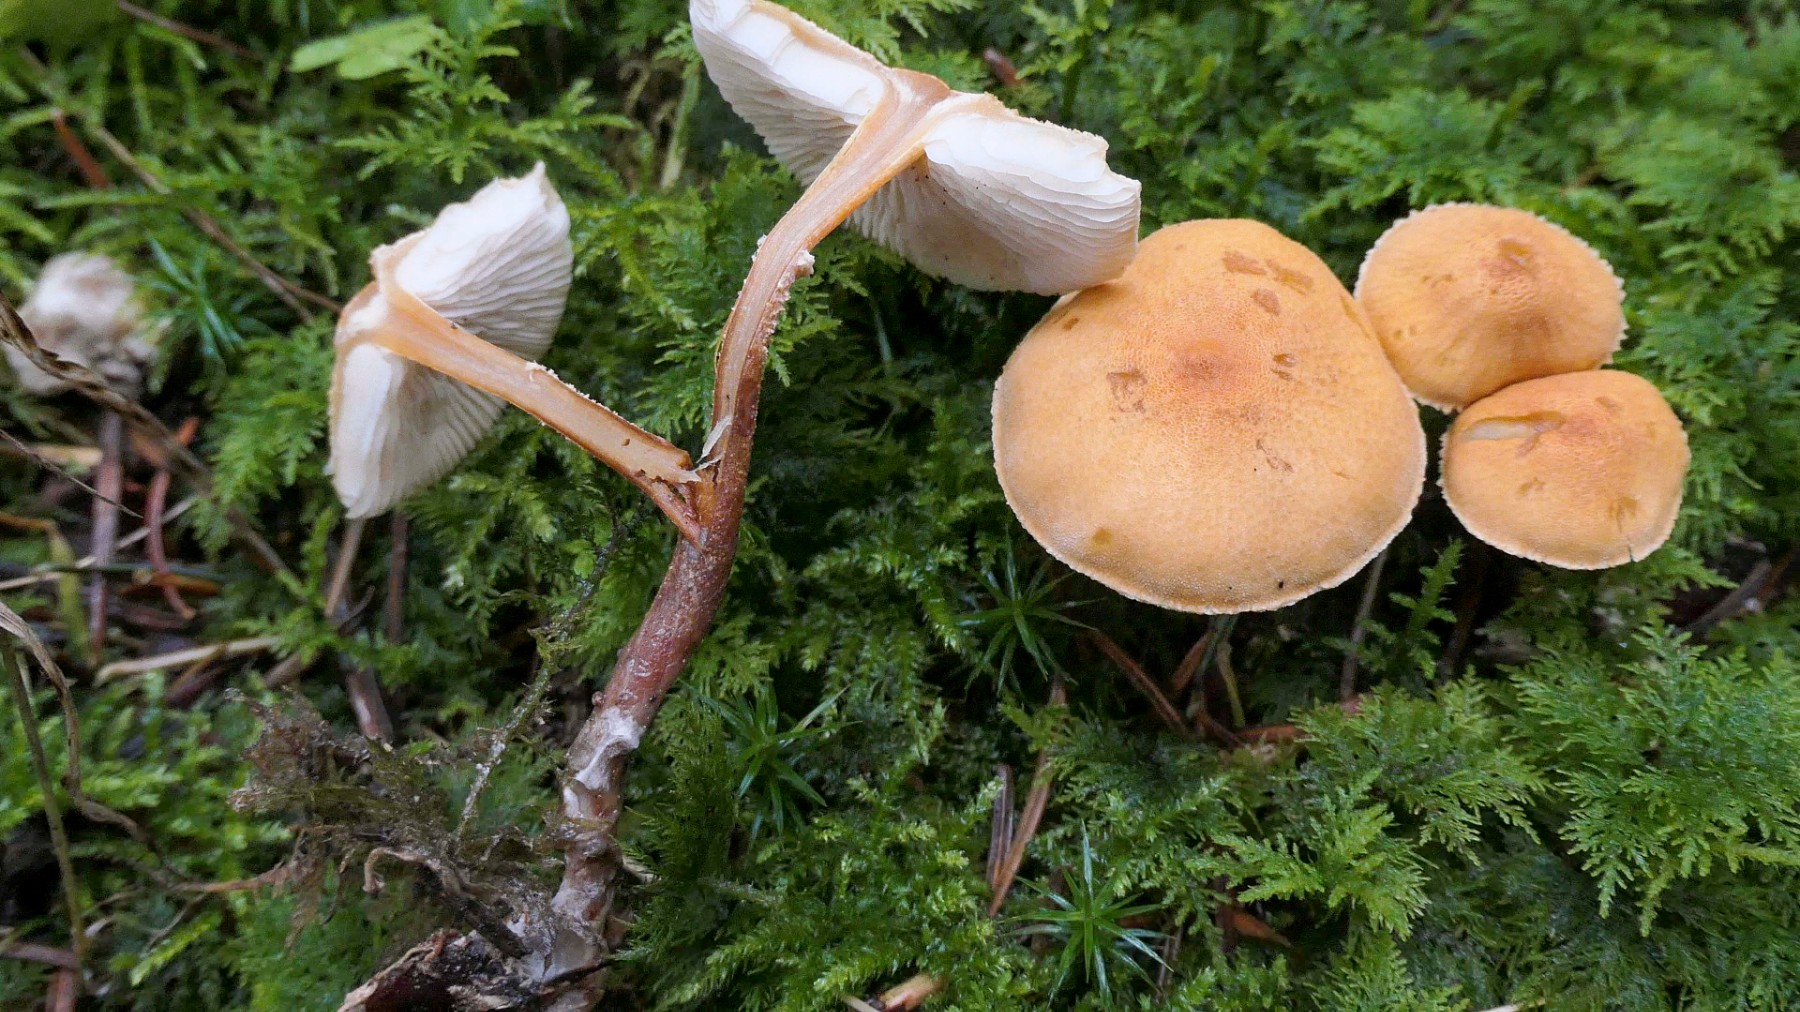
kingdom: Fungi
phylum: Basidiomycota
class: Agaricomycetes
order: Agaricales
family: Tricholomataceae
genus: Cystoderma
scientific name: Cystoderma amianthinum
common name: okkergul grynhat
